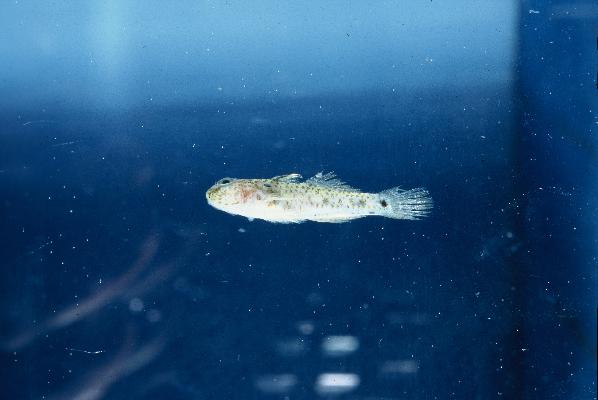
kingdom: Animalia
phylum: Chordata
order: Perciformes
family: Gobiidae
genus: Fusigobius
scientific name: Fusigobius humeralis
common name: Shoulderspot sandgoby
